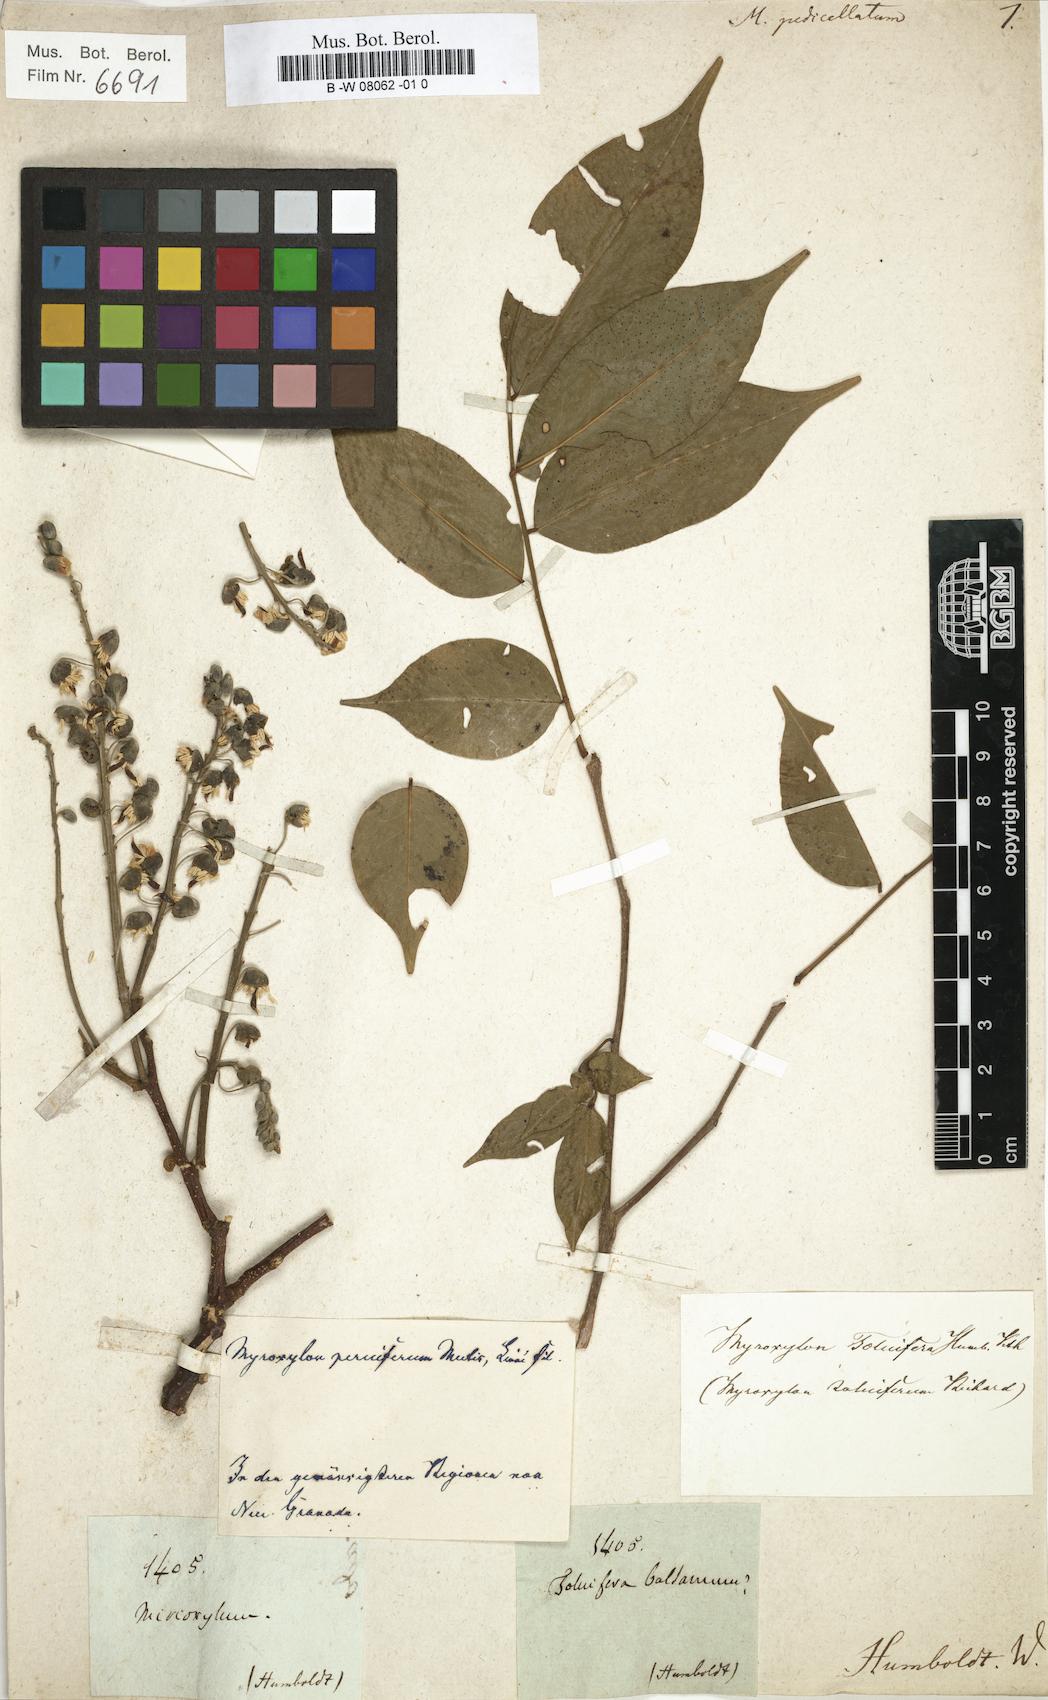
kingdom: Plantae
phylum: Tracheophyta
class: Magnoliopsida
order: Fabales
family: Fabaceae
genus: Myroxylon
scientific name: Myroxylon peruiferum
